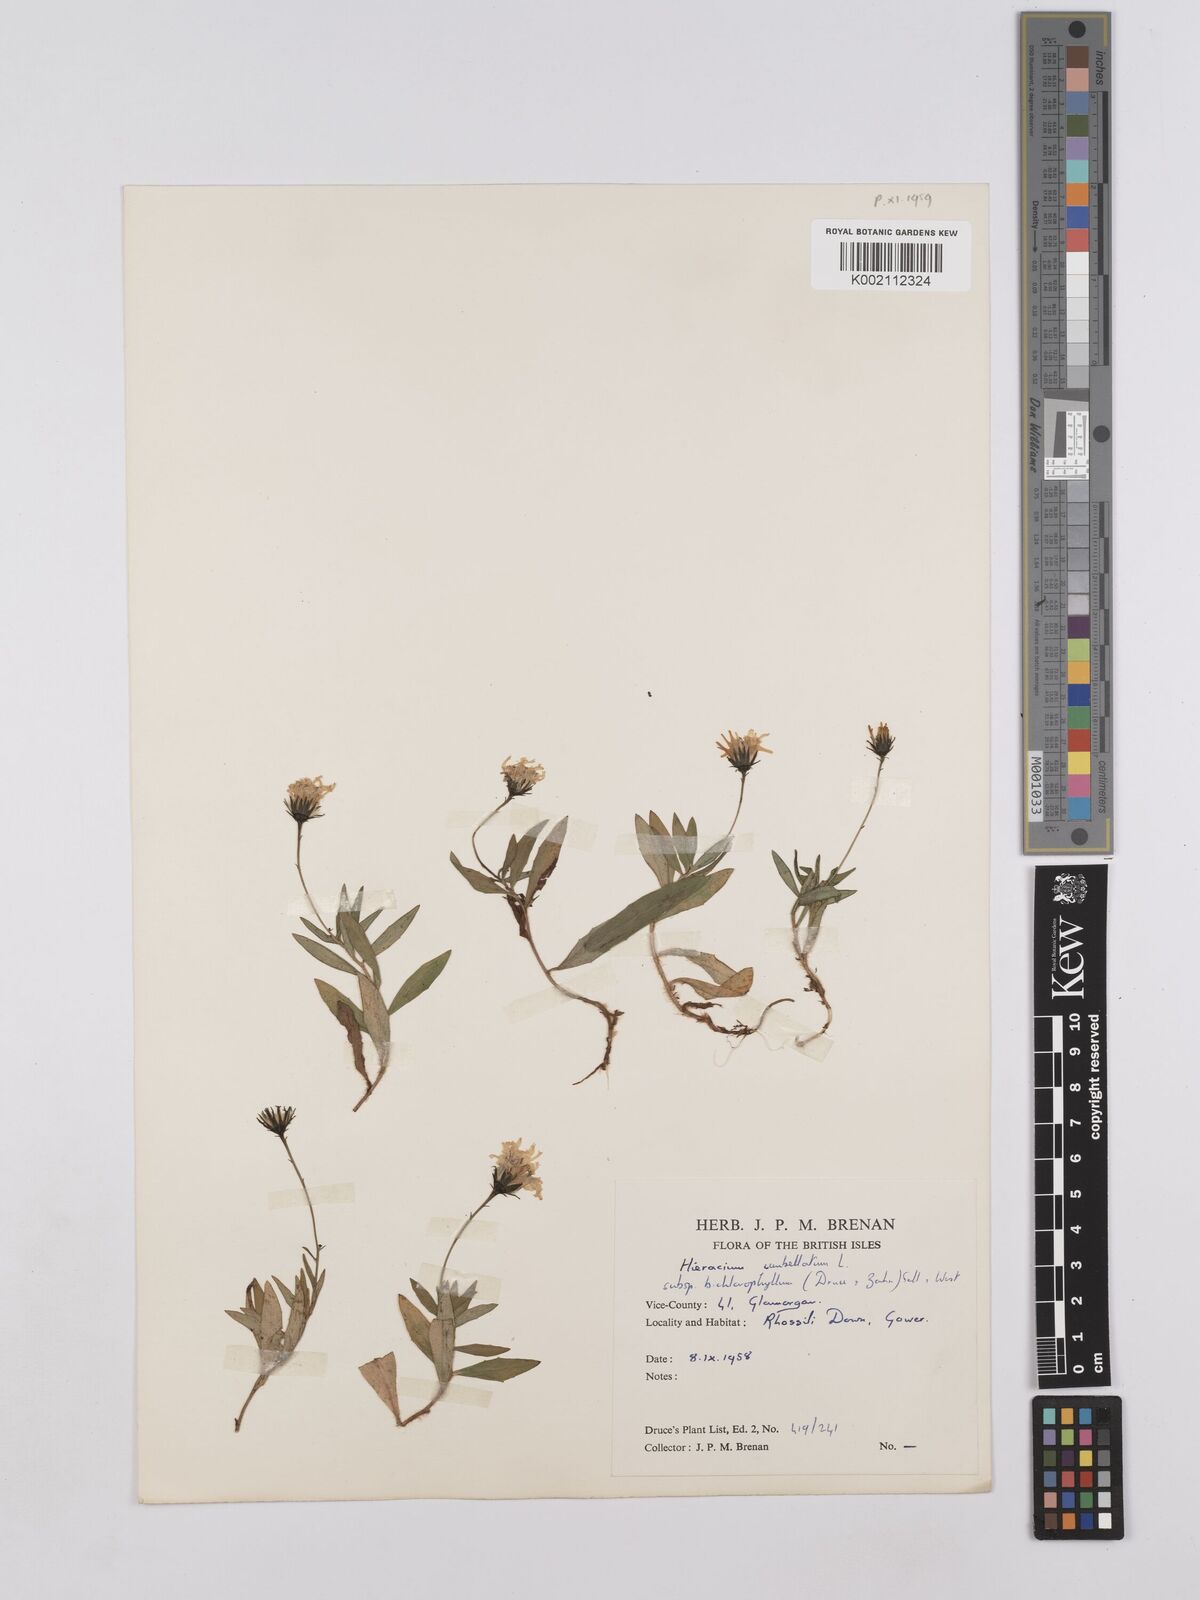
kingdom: Plantae
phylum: Tracheophyta
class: Magnoliopsida
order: Asterales
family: Asteraceae
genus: Hieracium
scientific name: Hieracium umbellatum
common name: Northern hawkweed
